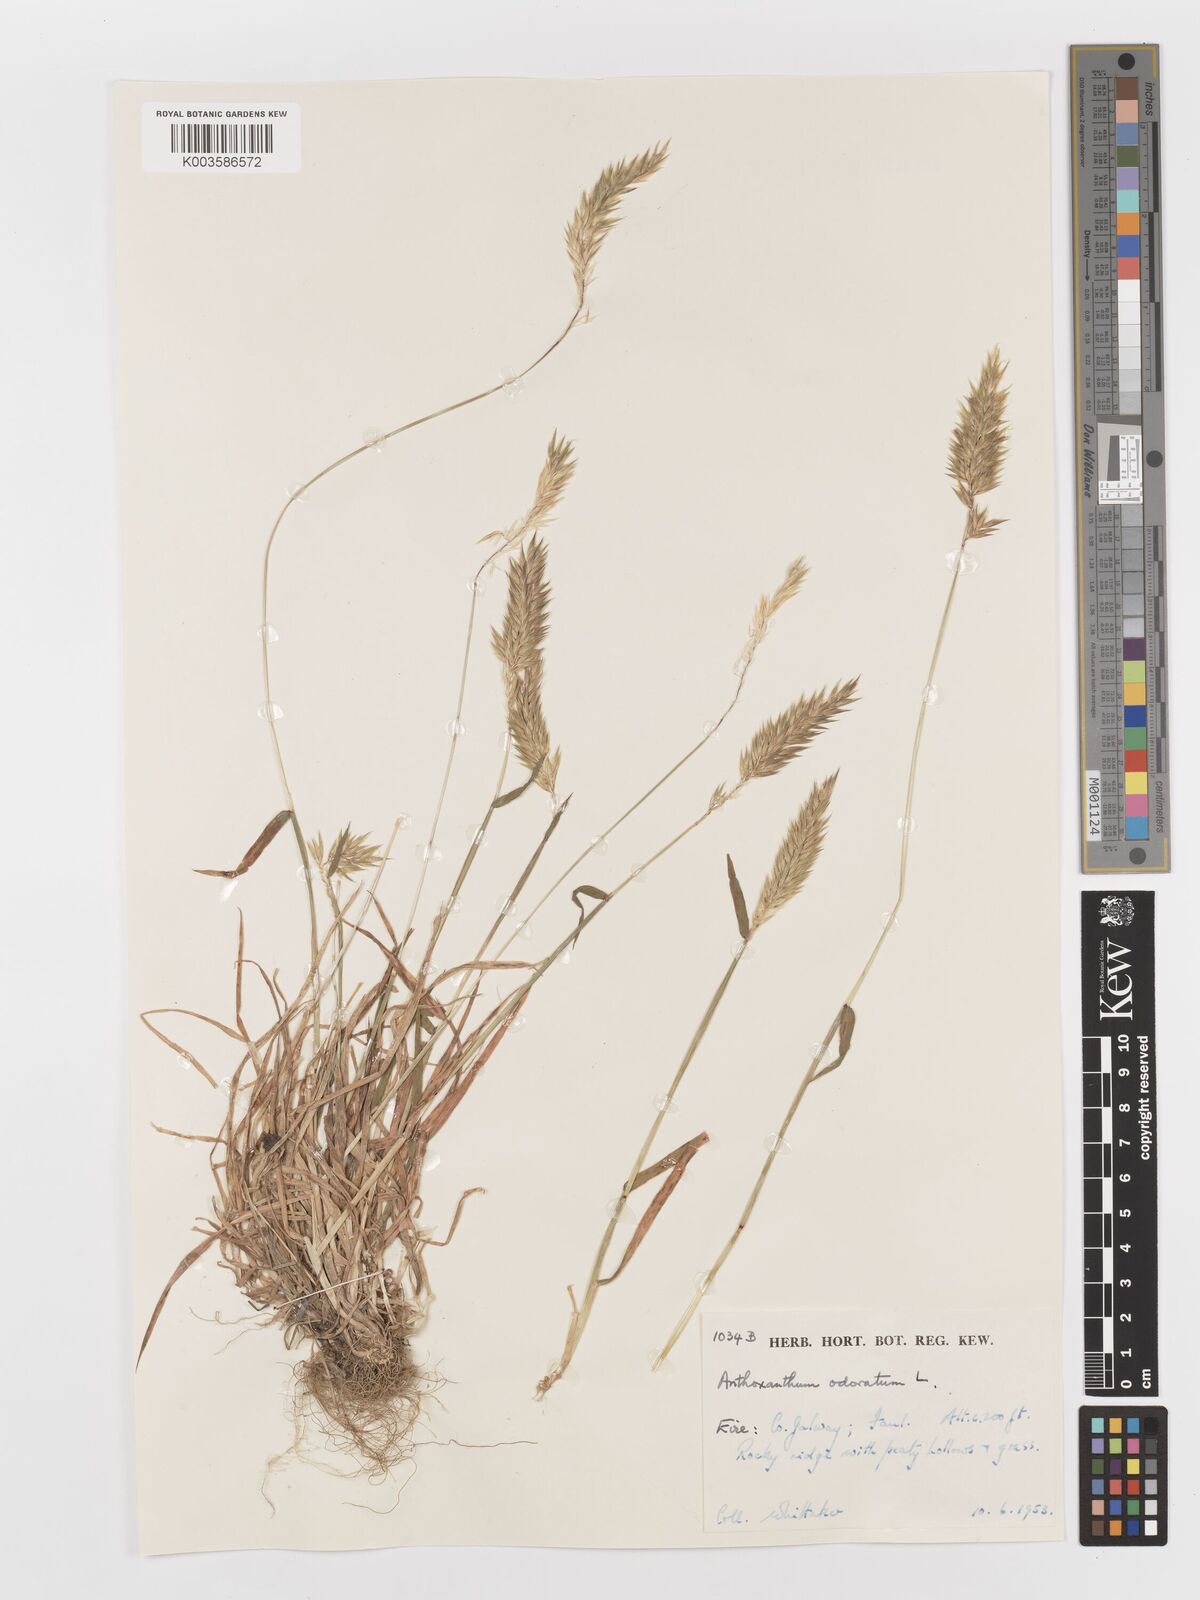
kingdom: Plantae
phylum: Tracheophyta
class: Liliopsida
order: Poales
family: Poaceae
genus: Anthoxanthum
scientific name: Anthoxanthum odoratum
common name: Sweet vernalgrass
